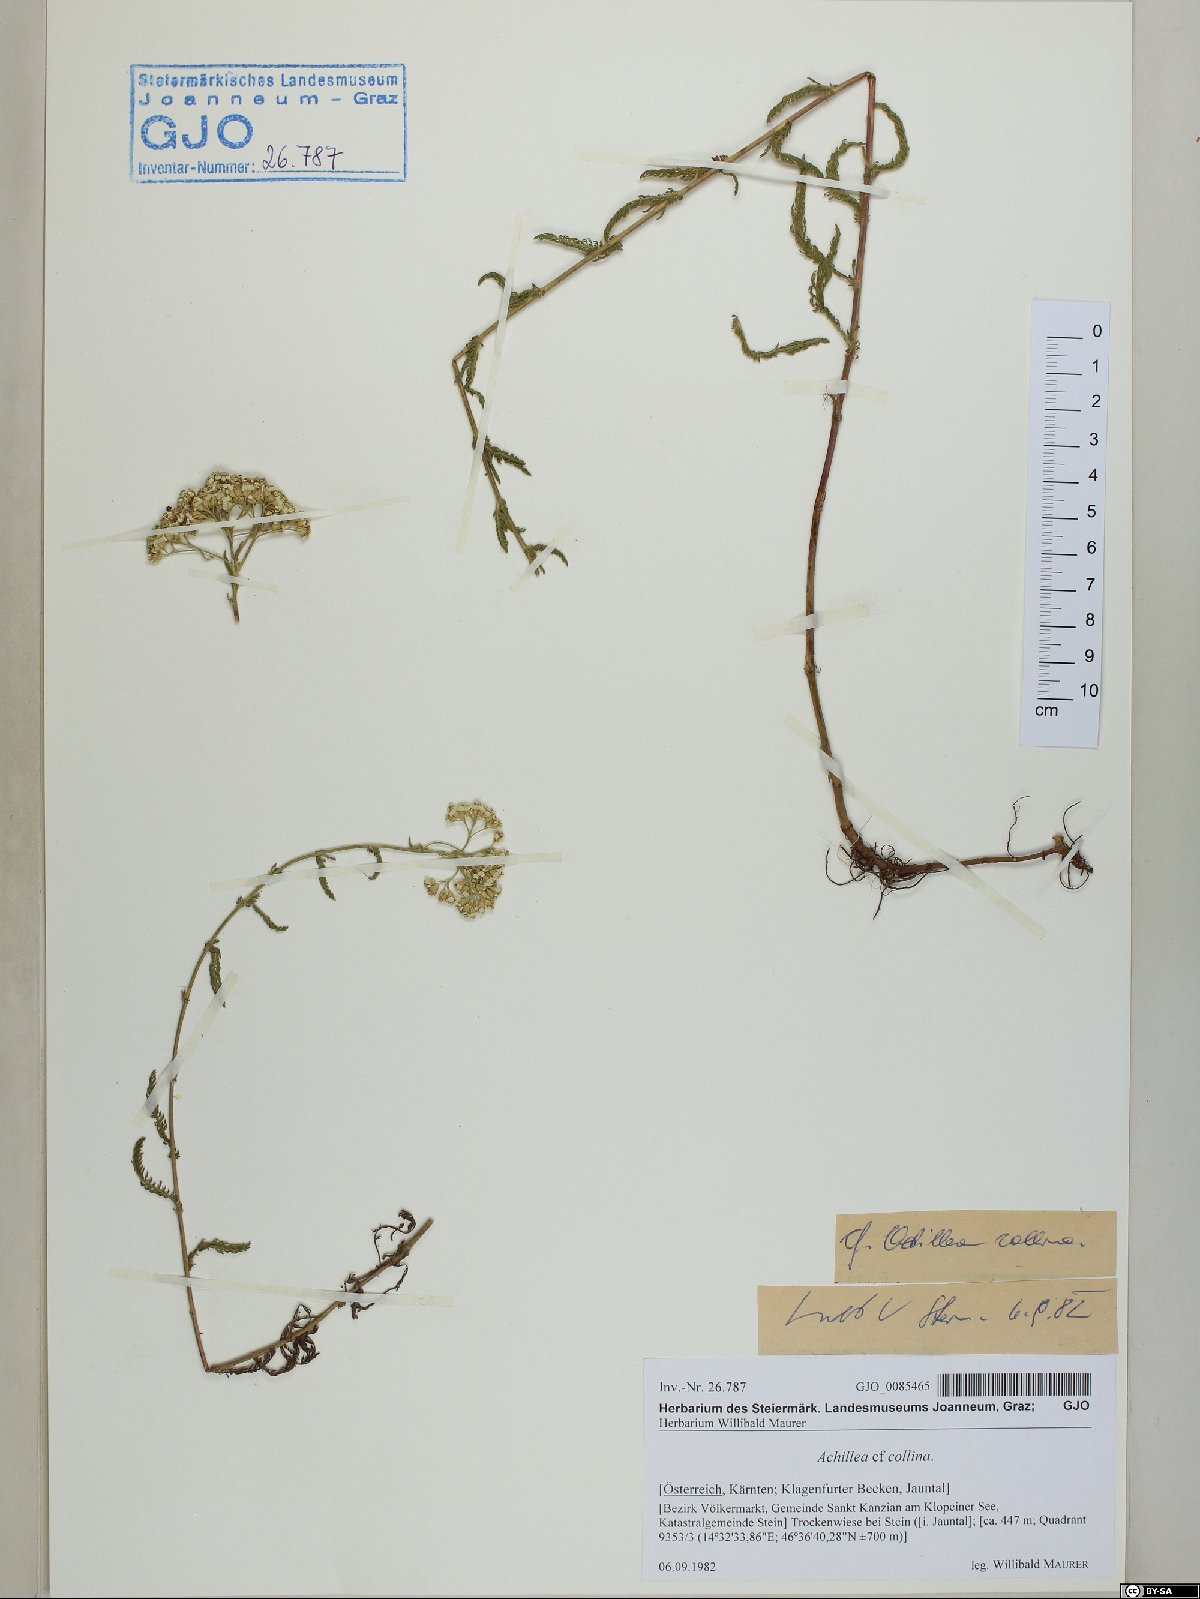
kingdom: Plantae
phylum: Tracheophyta
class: Magnoliopsida
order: Asterales
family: Asteraceae
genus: Achillea
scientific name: Achillea collina
